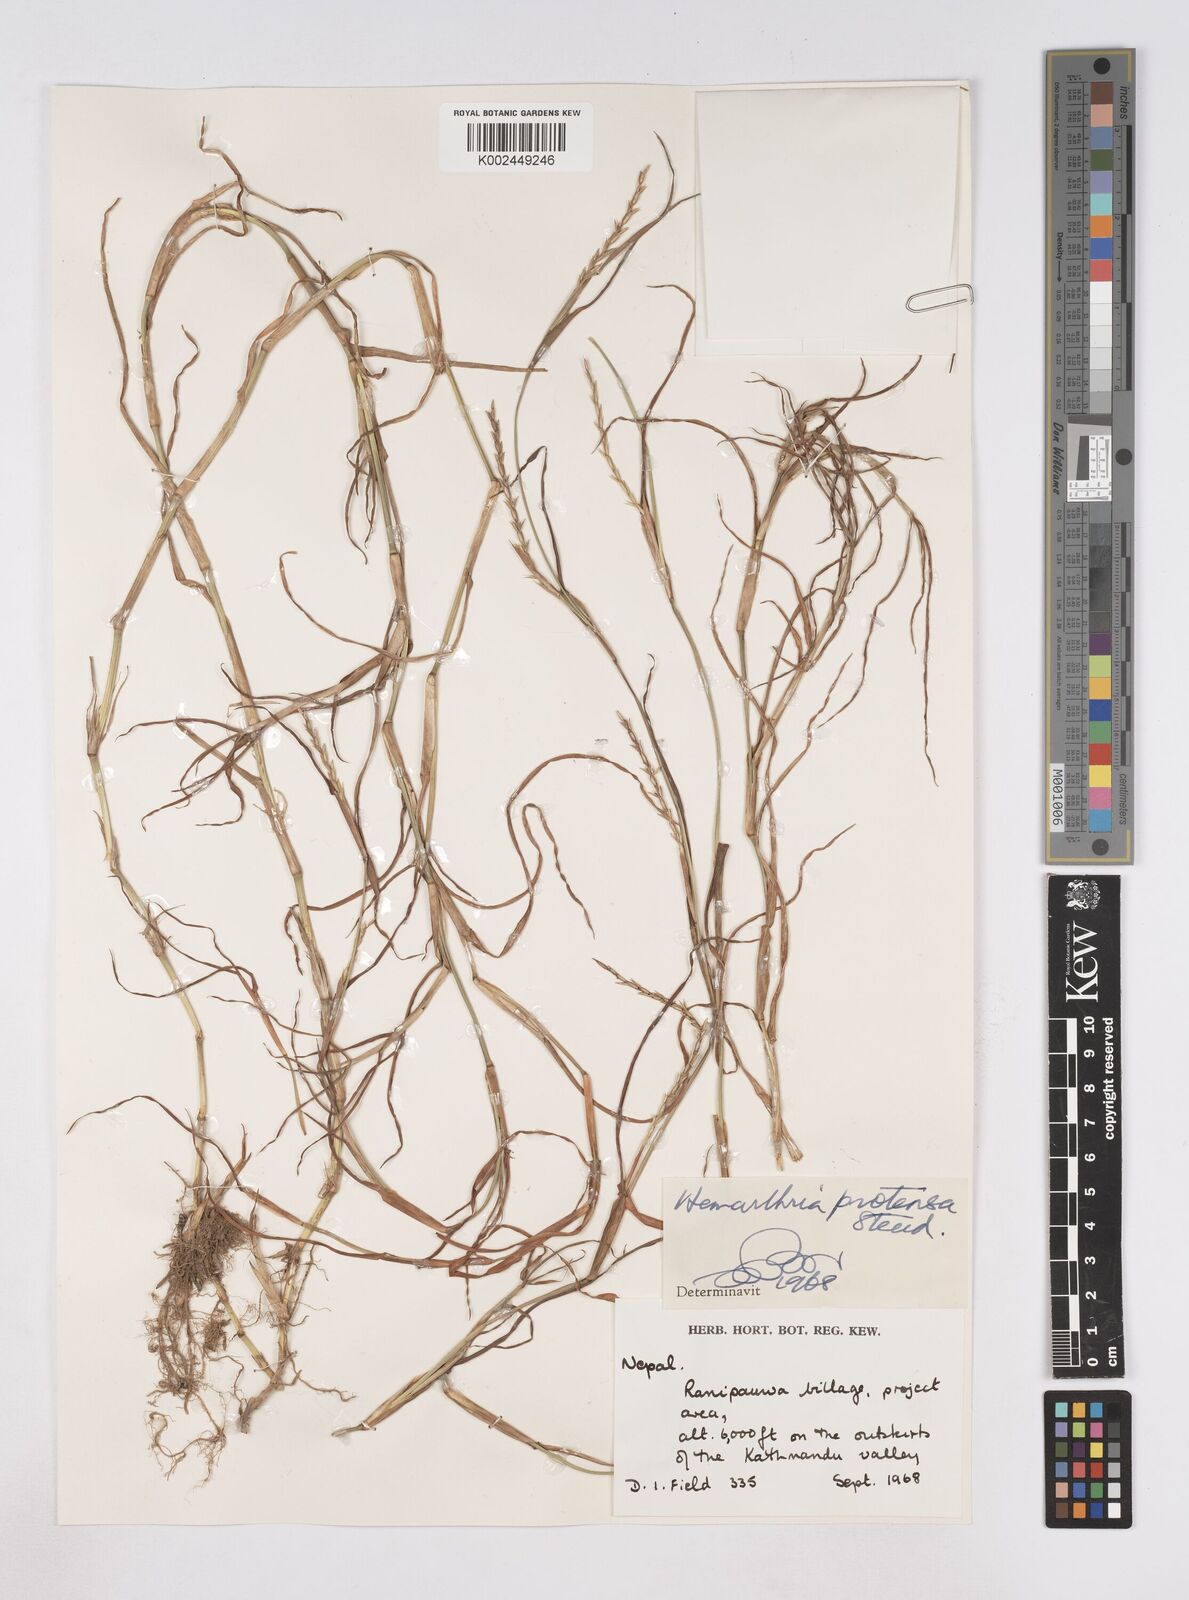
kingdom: Plantae
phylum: Tracheophyta
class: Liliopsida
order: Poales
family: Poaceae
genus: Hemarthria
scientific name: Hemarthria compressa
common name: Whip grass
